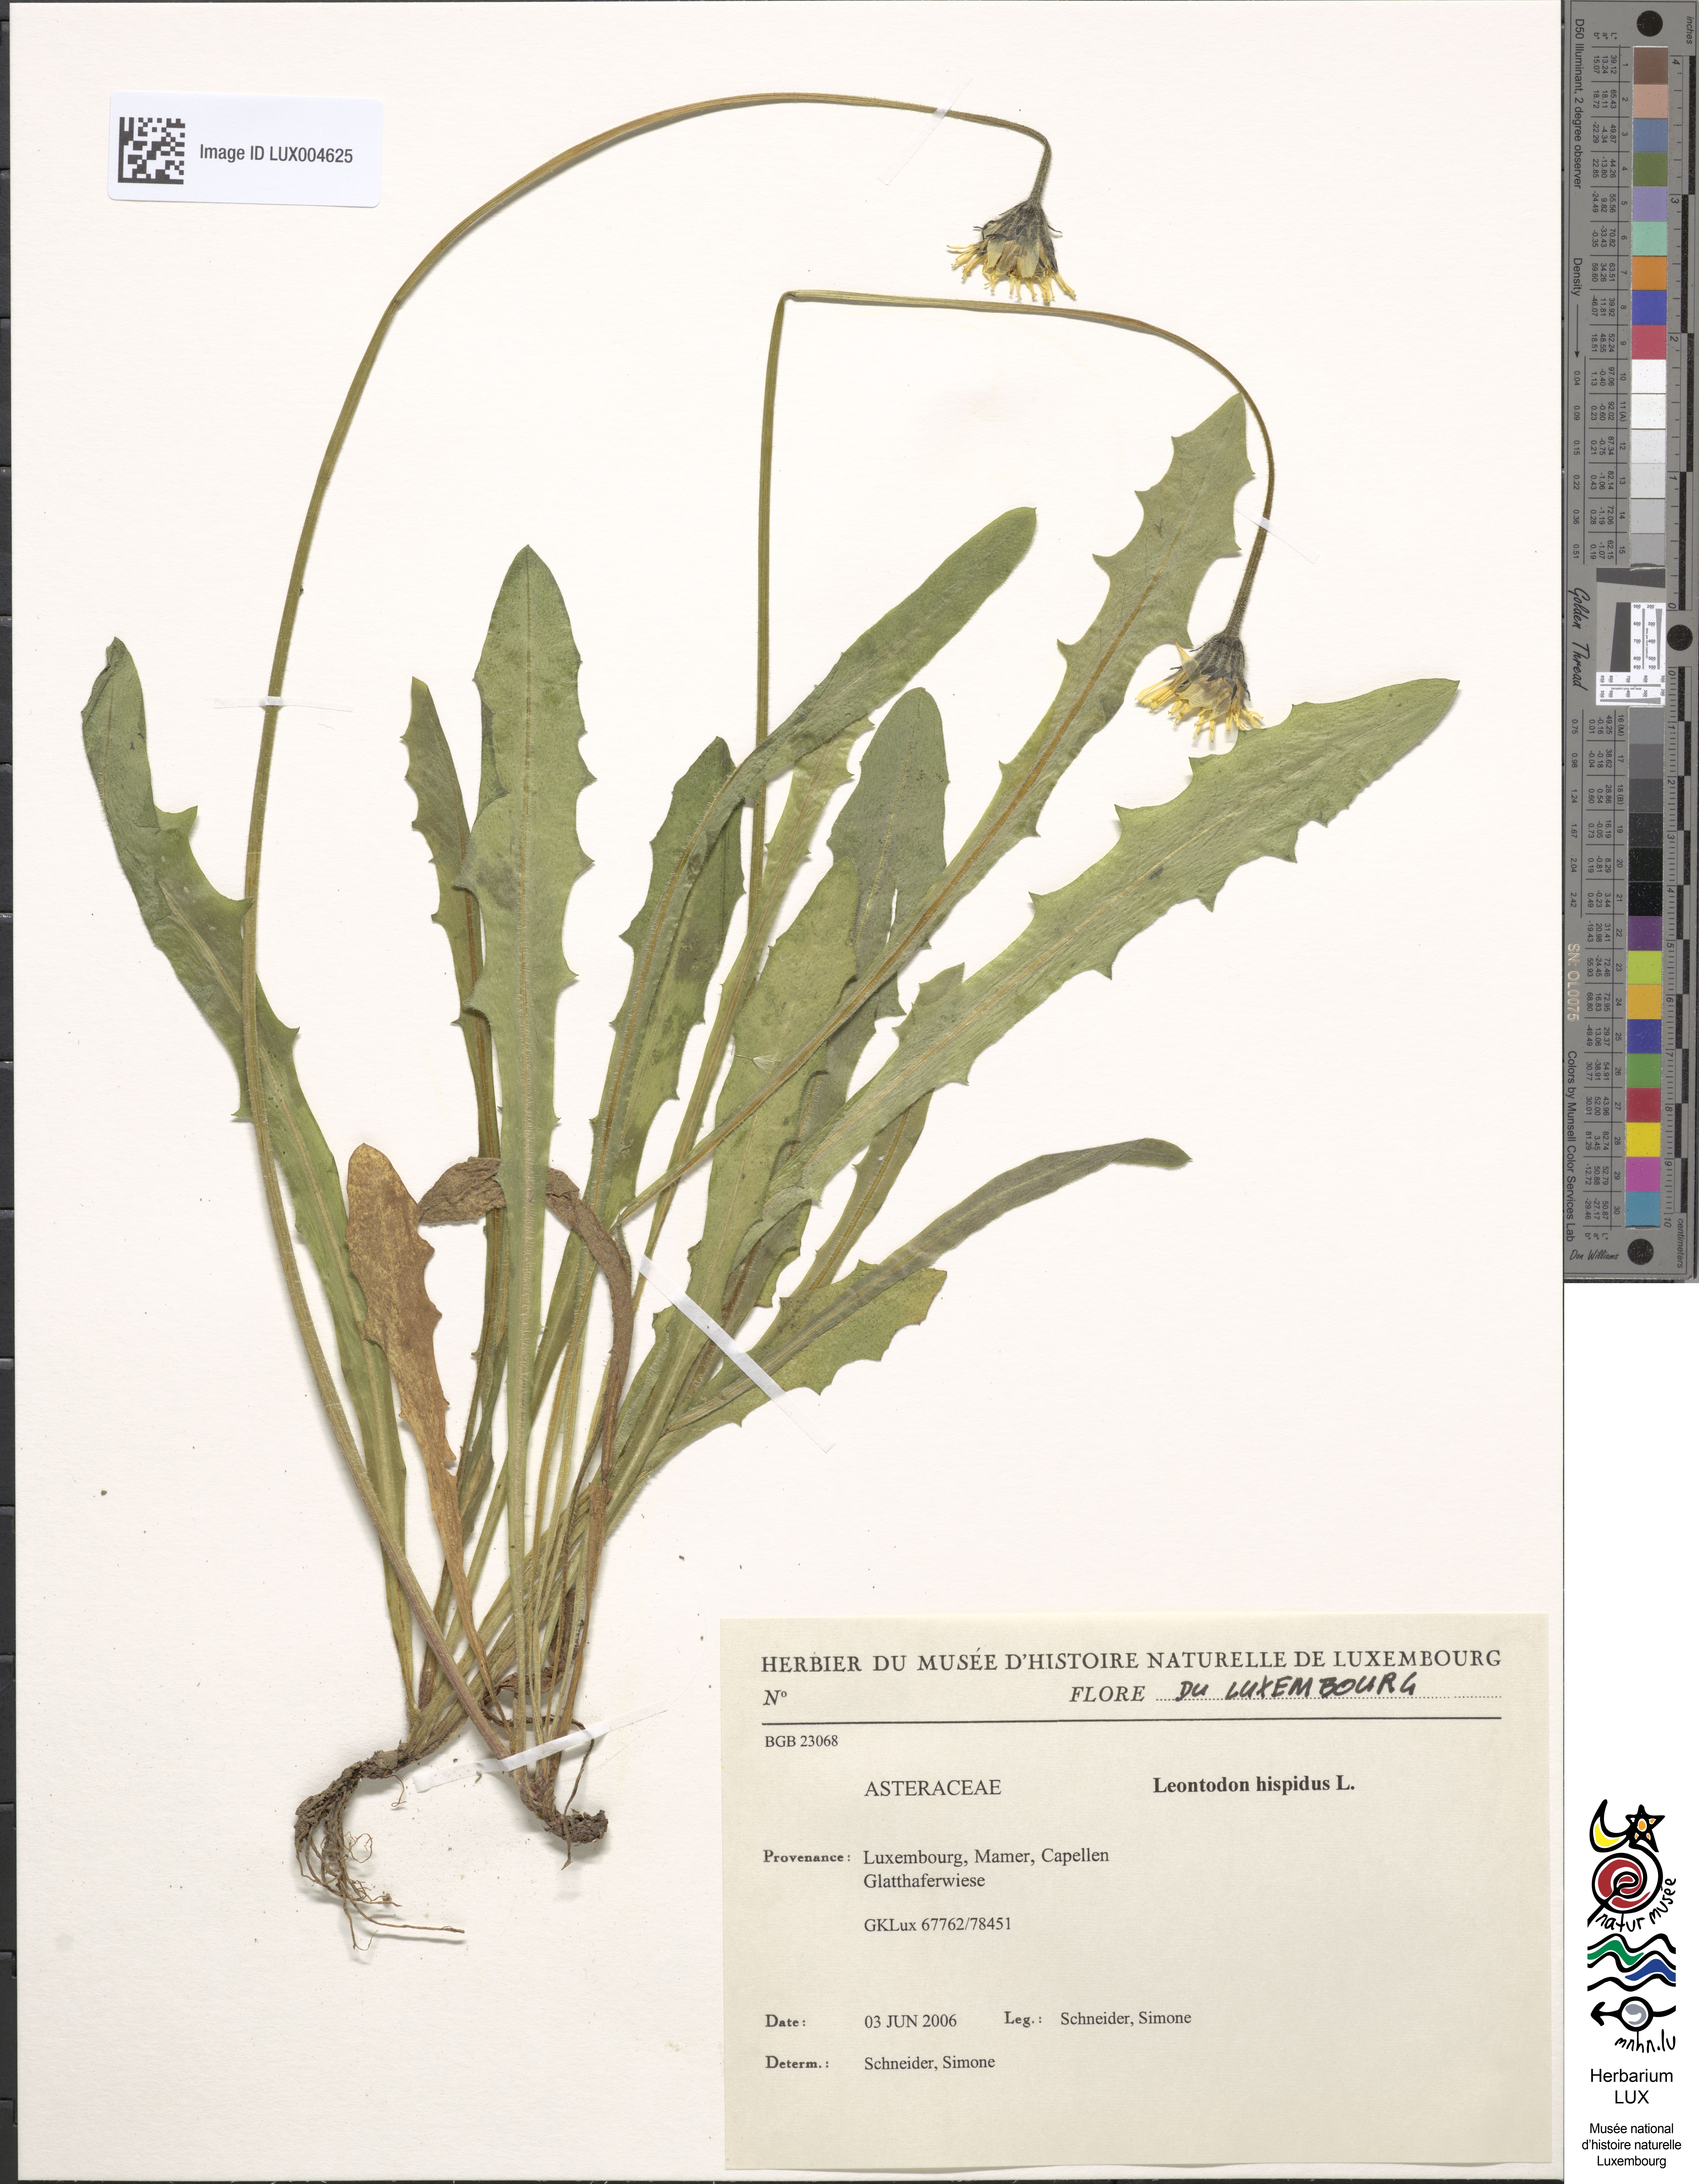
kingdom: Plantae
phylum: Tracheophyta
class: Magnoliopsida
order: Asterales
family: Asteraceae
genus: Leontodon
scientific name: Leontodon hispidus
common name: Rough hawkbit
